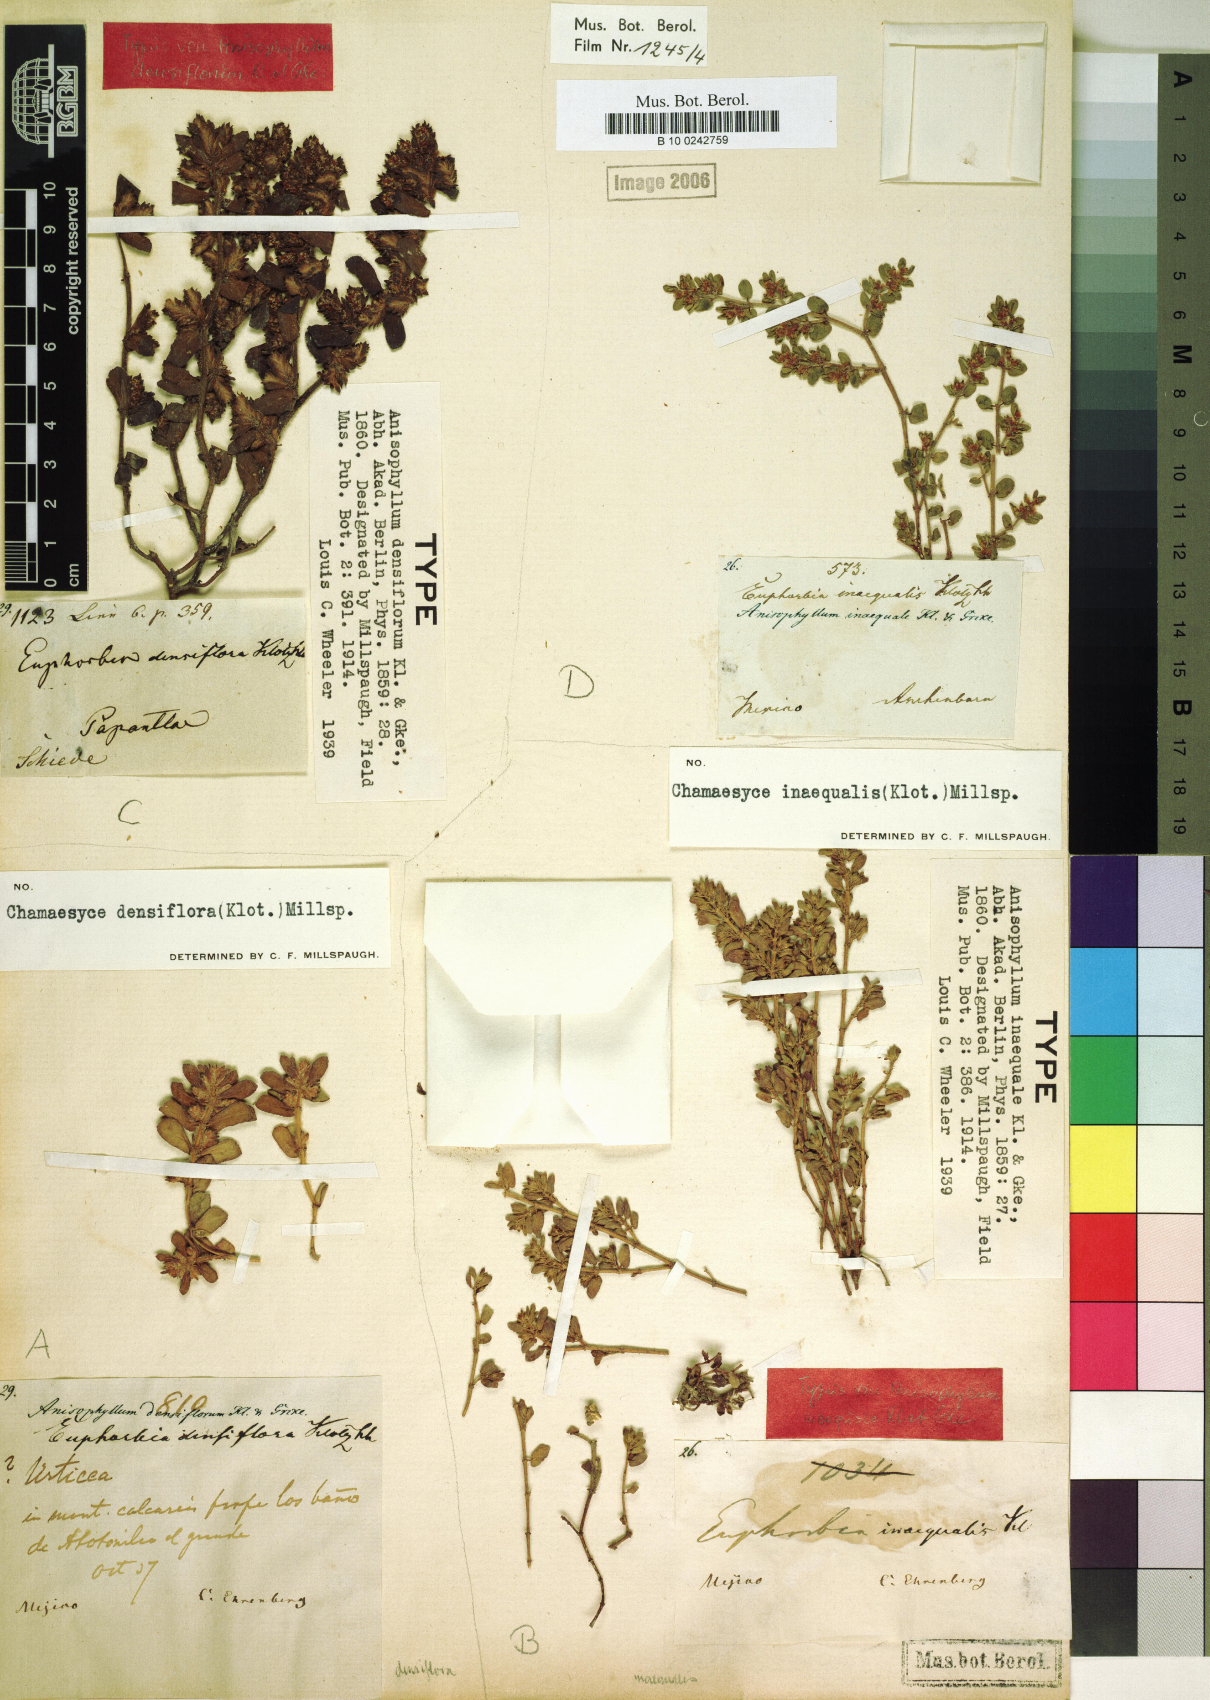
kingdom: Plantae
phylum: Tracheophyta
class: Magnoliopsida
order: Malpighiales
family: Euphorbiaceae
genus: Euphorbia
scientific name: Euphorbia densiflora
